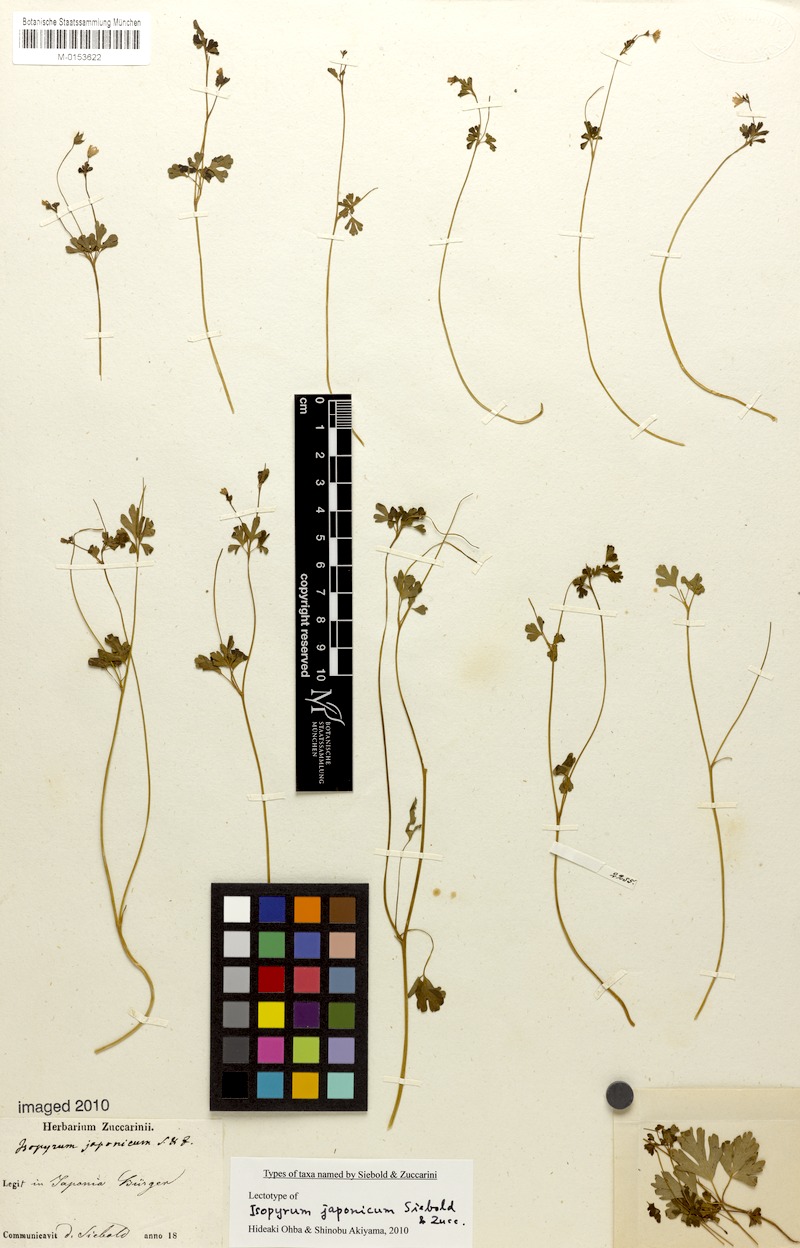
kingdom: Plantae
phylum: Tracheophyta
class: Magnoliopsida
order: Ranunculales
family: Ranunculaceae
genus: Semiaquilegia
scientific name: Semiaquilegia adoxoides
